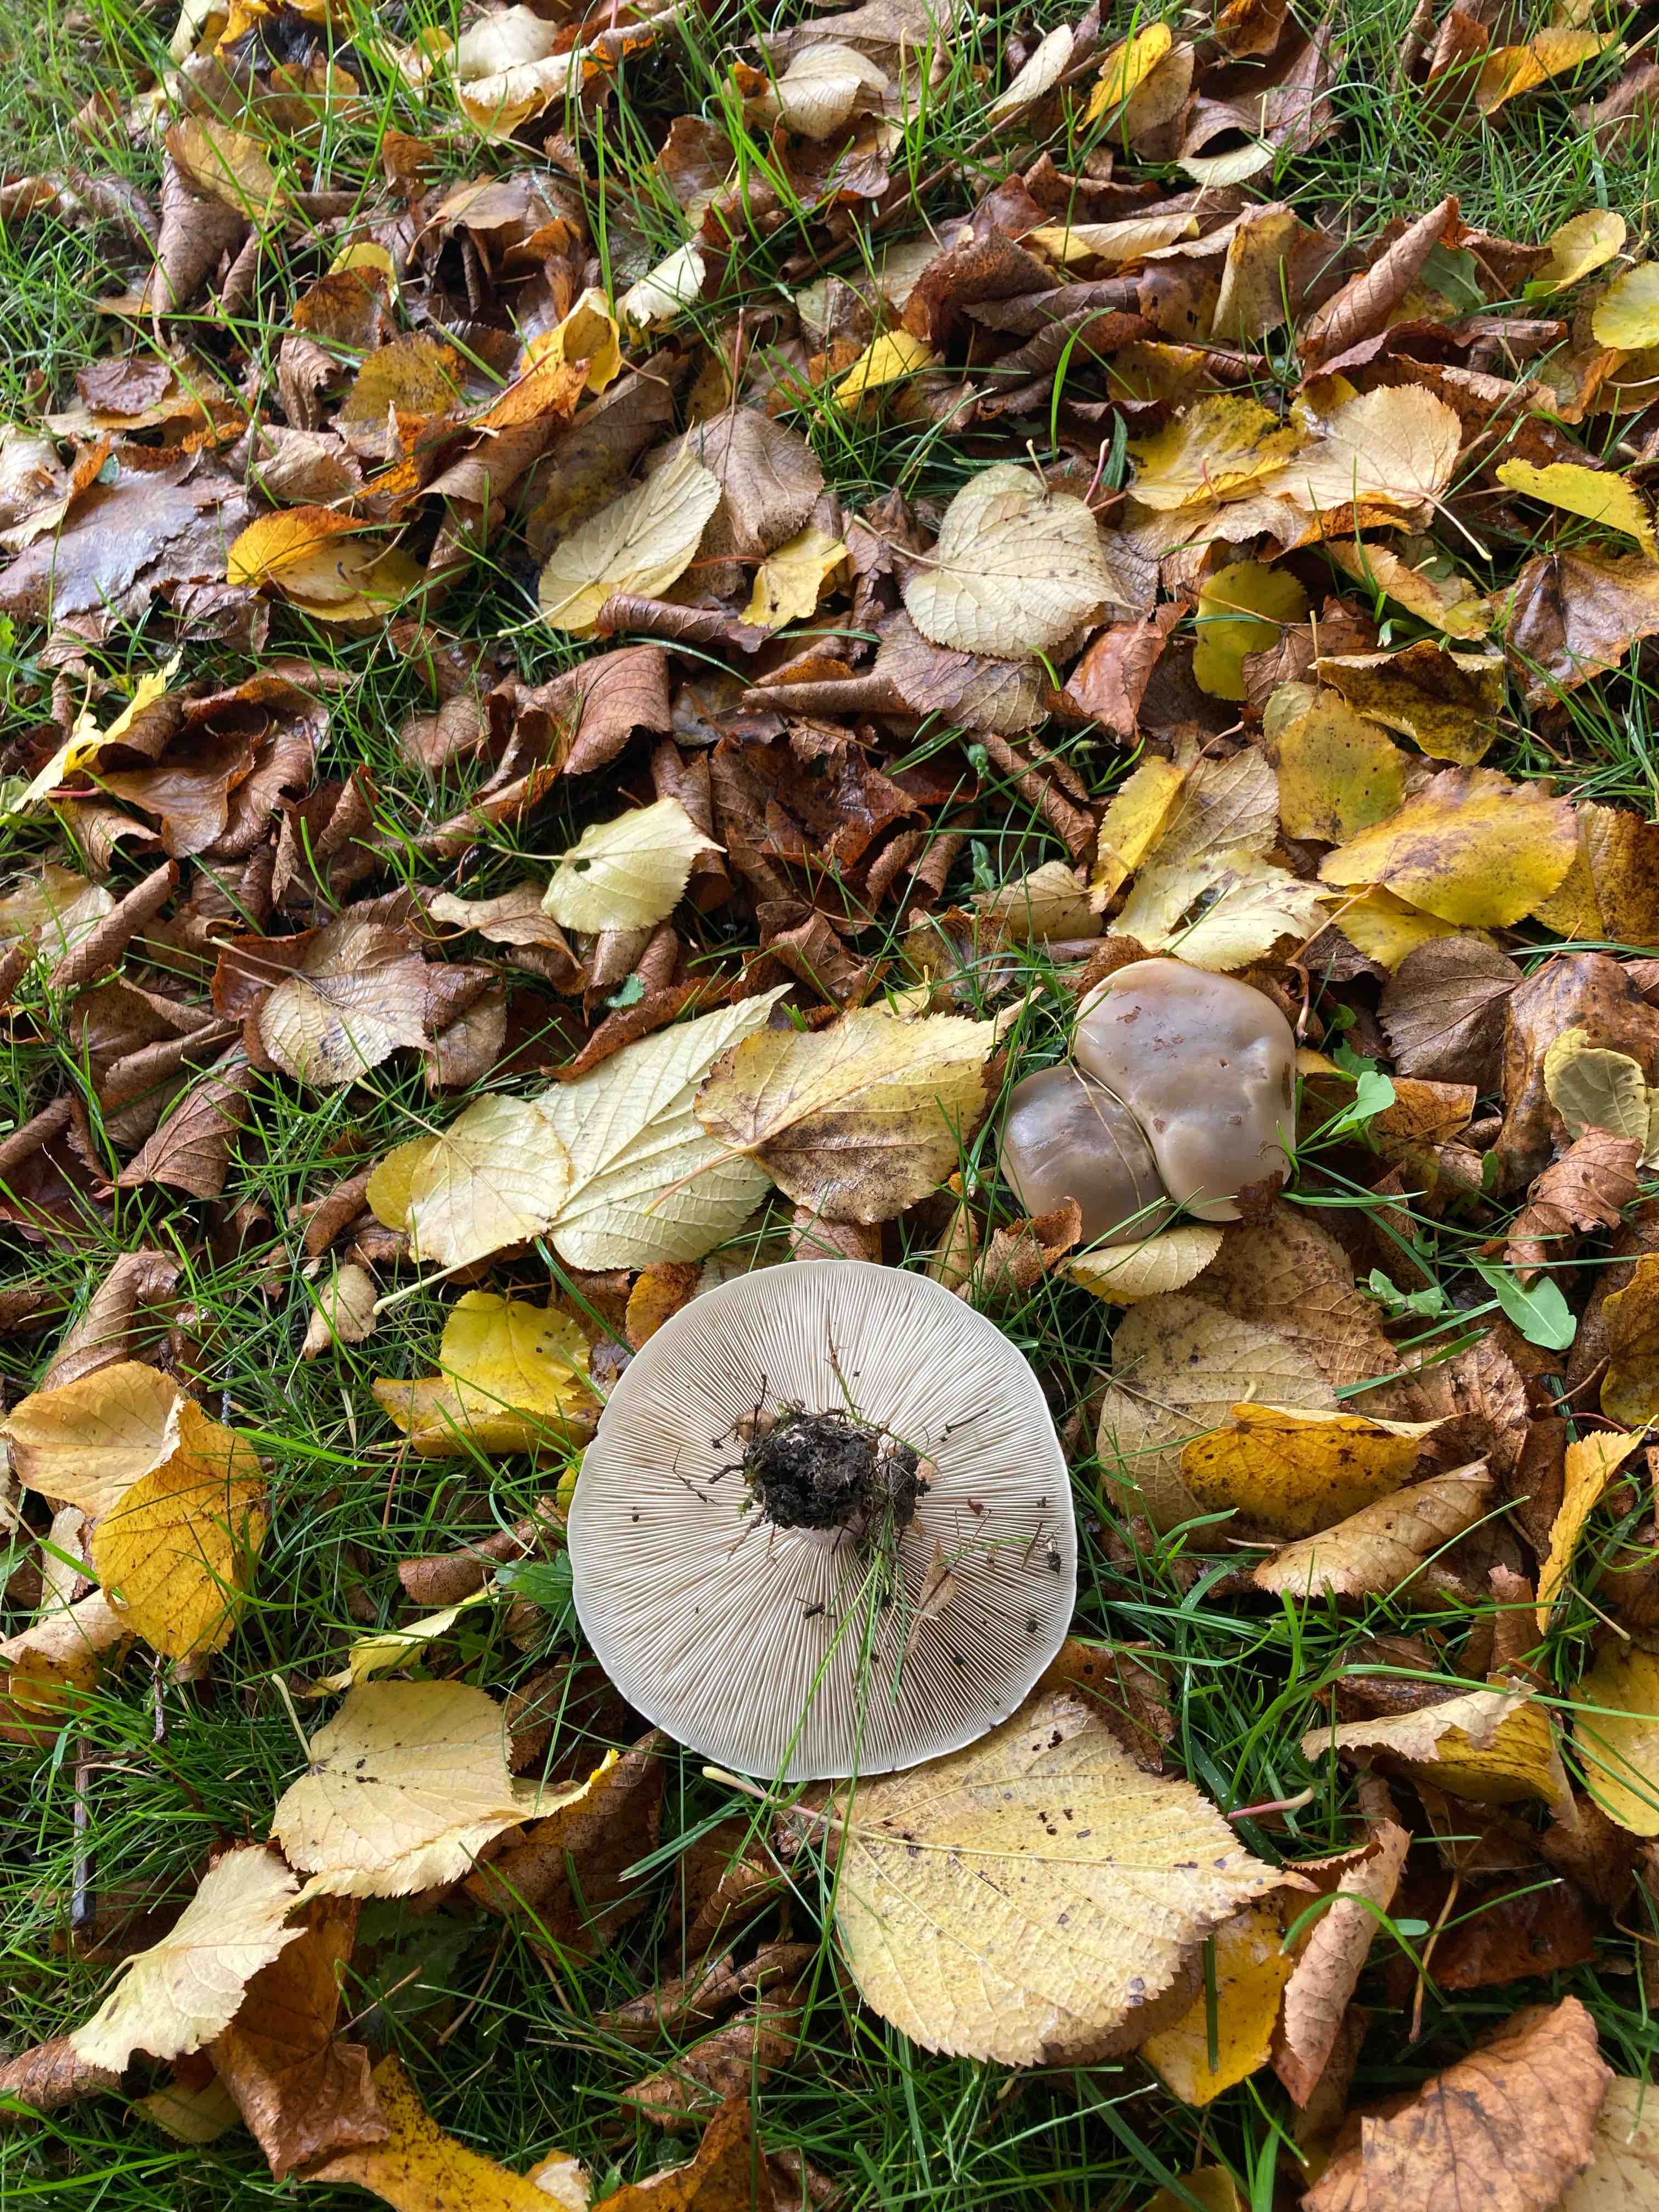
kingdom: Fungi
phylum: Basidiomycota
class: Agaricomycetes
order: Agaricales
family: Tricholomataceae
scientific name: Tricholomataceae
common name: ridderhatfamilien
